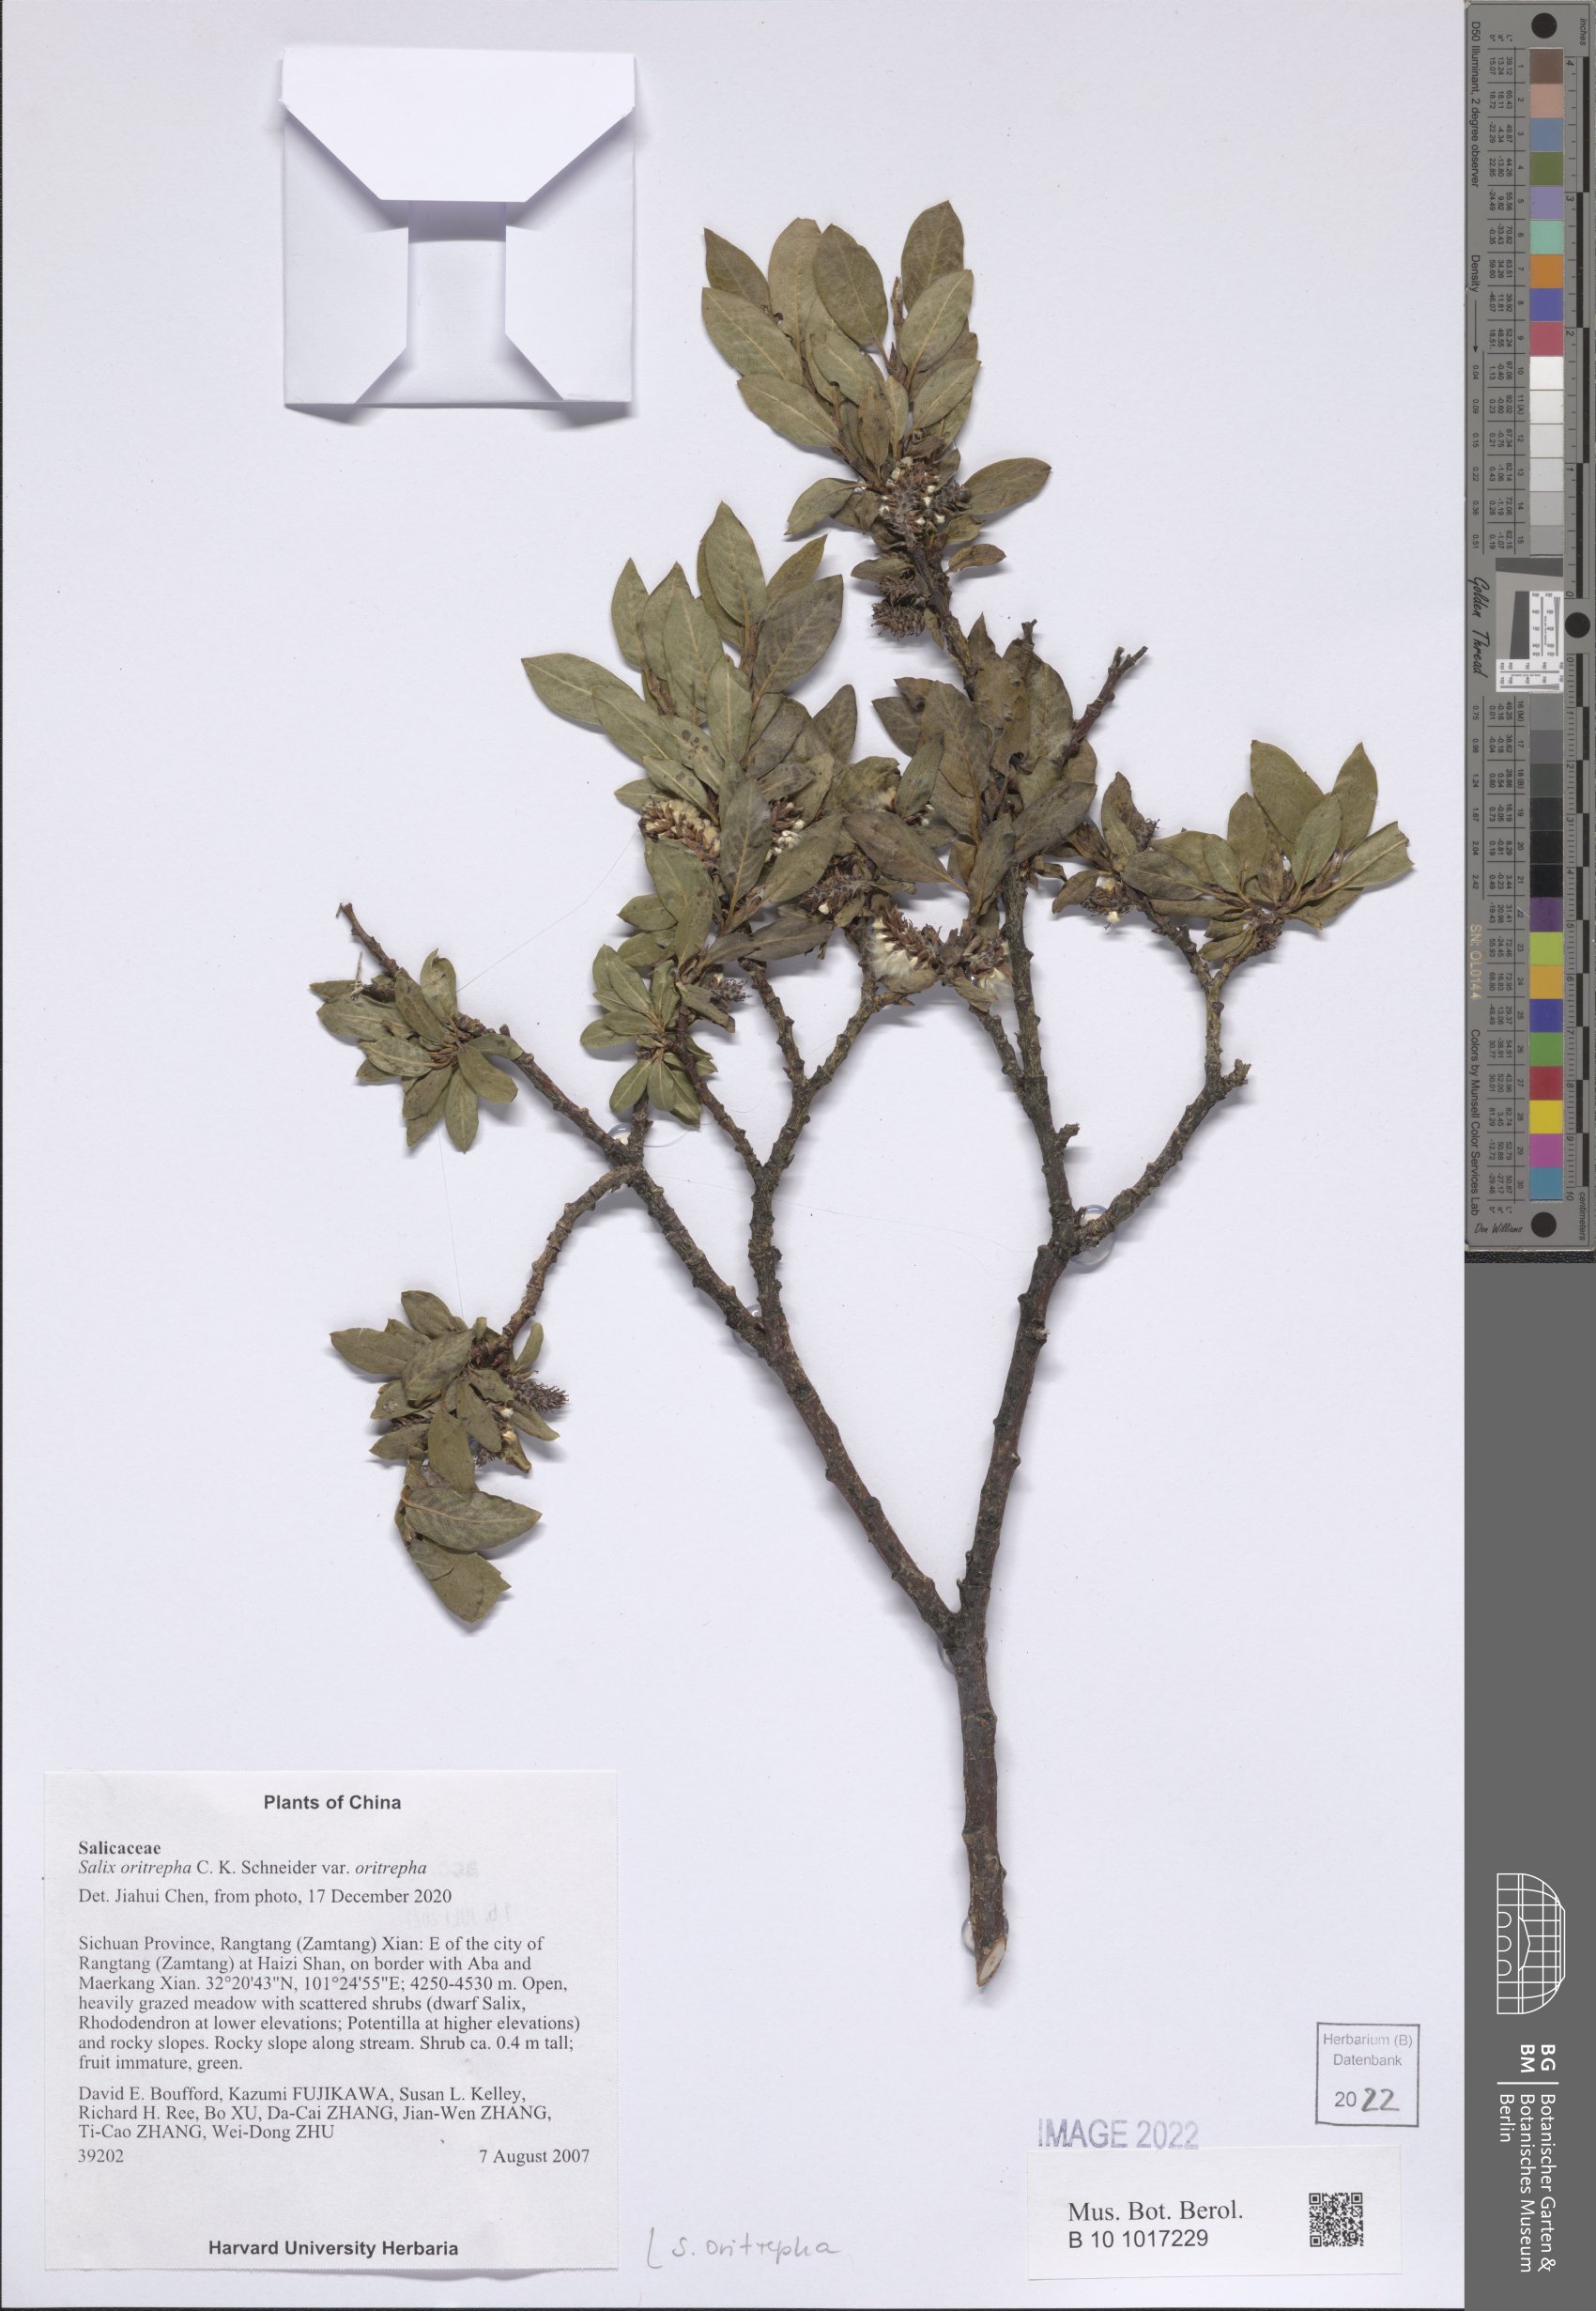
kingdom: Plantae
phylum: Tracheophyta
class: Magnoliopsida
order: Malpighiales
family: Salicaceae
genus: Salix
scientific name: Salix oritrepha
